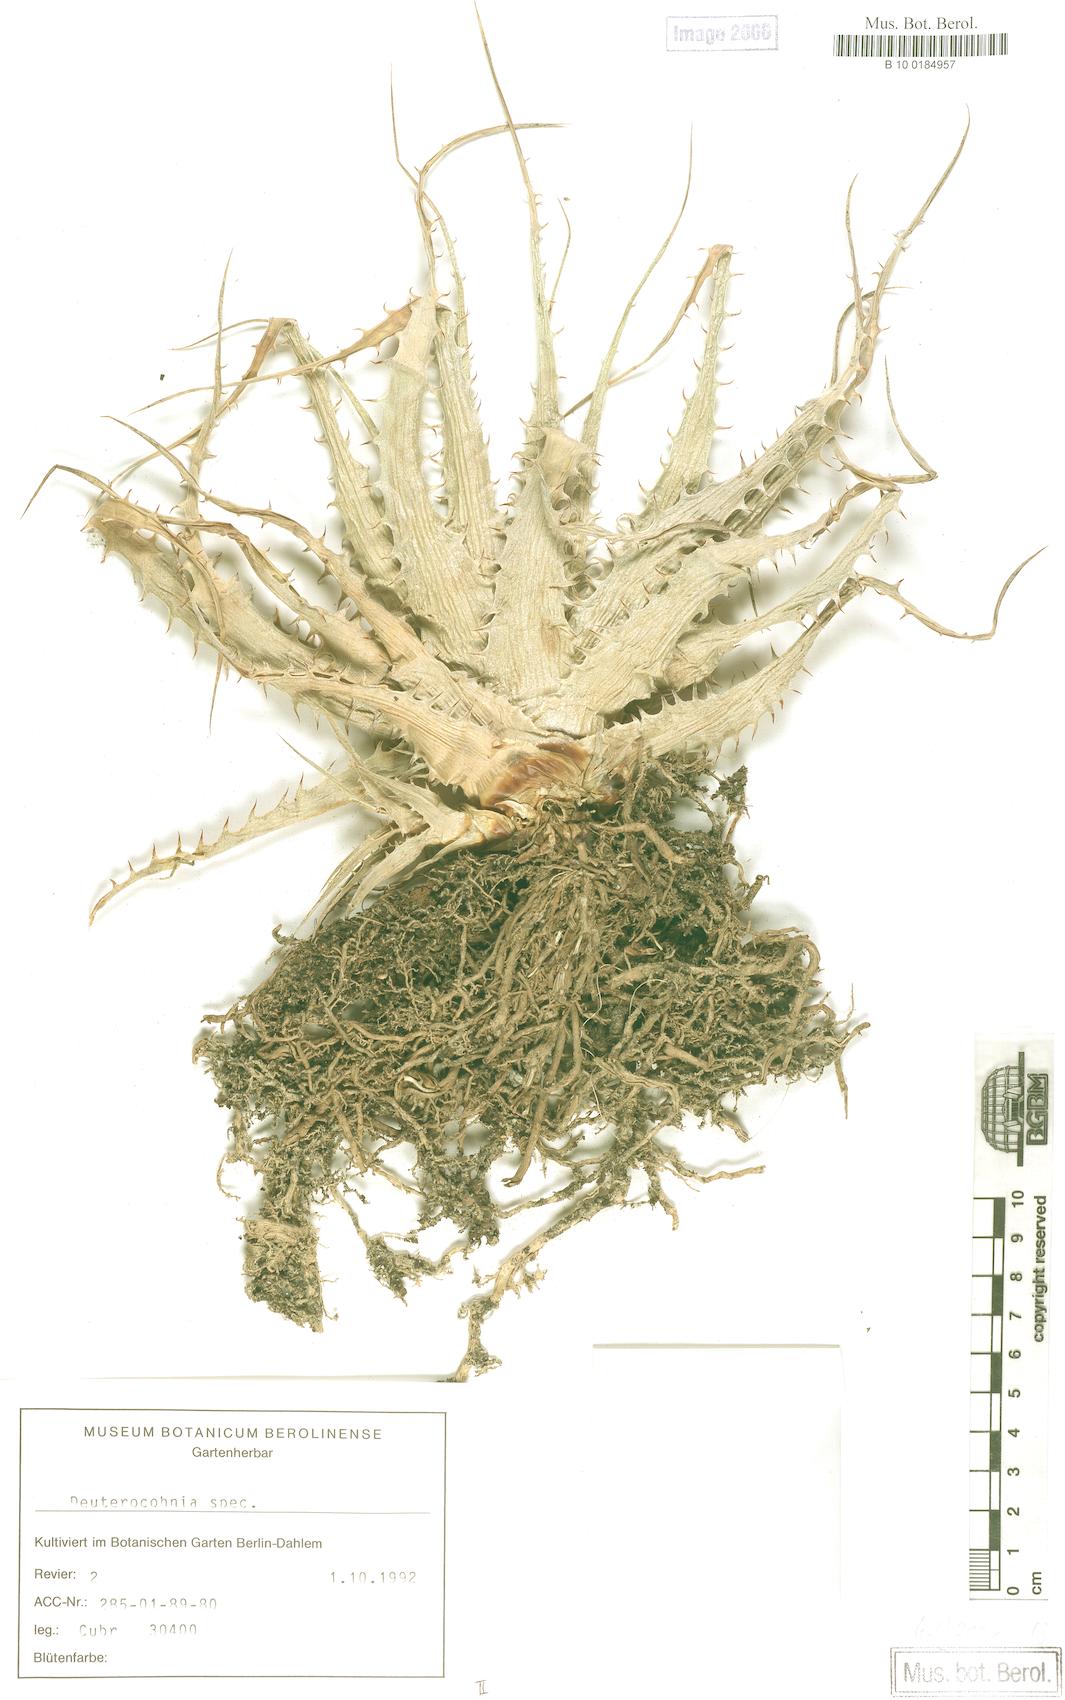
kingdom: Plantae
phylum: Tracheophyta
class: Liliopsida
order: Poales
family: Bromeliaceae
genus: Deuterocohnia
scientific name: Deuterocohnia longipetala
